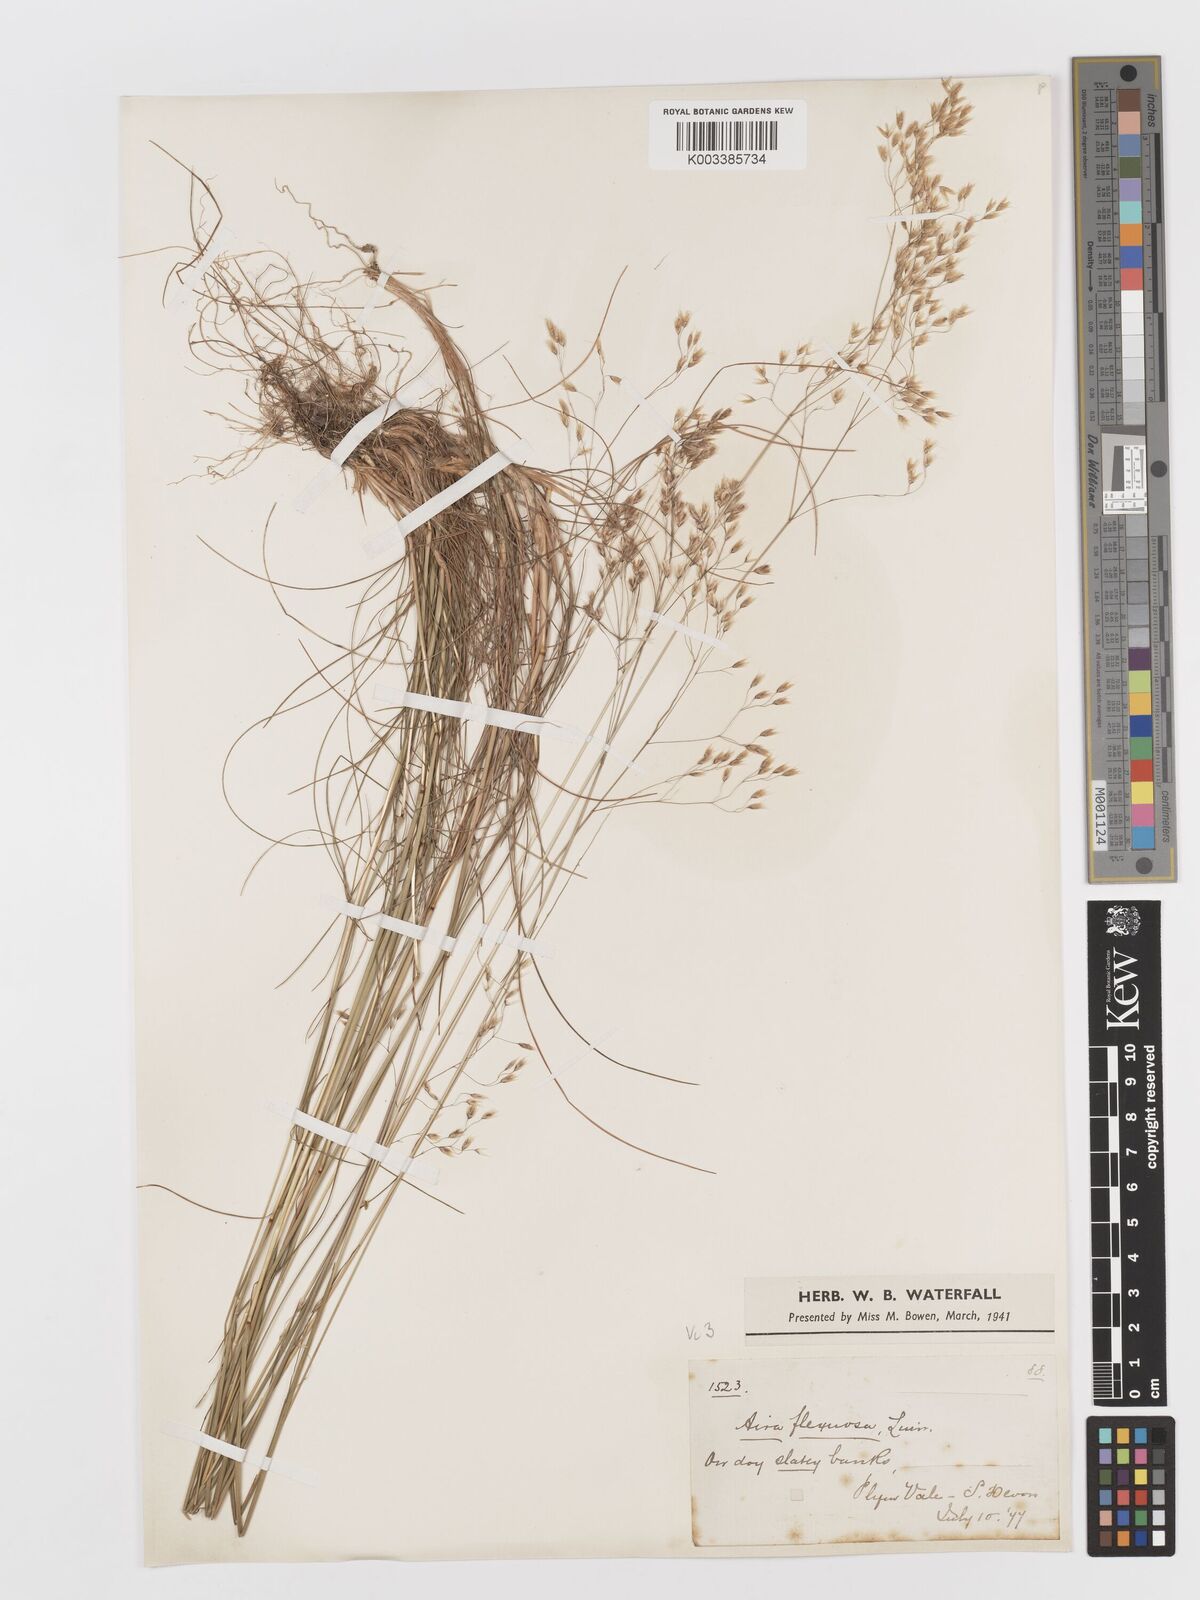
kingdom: Plantae
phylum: Tracheophyta
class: Liliopsida
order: Poales
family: Poaceae
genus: Avenella
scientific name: Avenella flexuosa
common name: Wavy hairgrass
